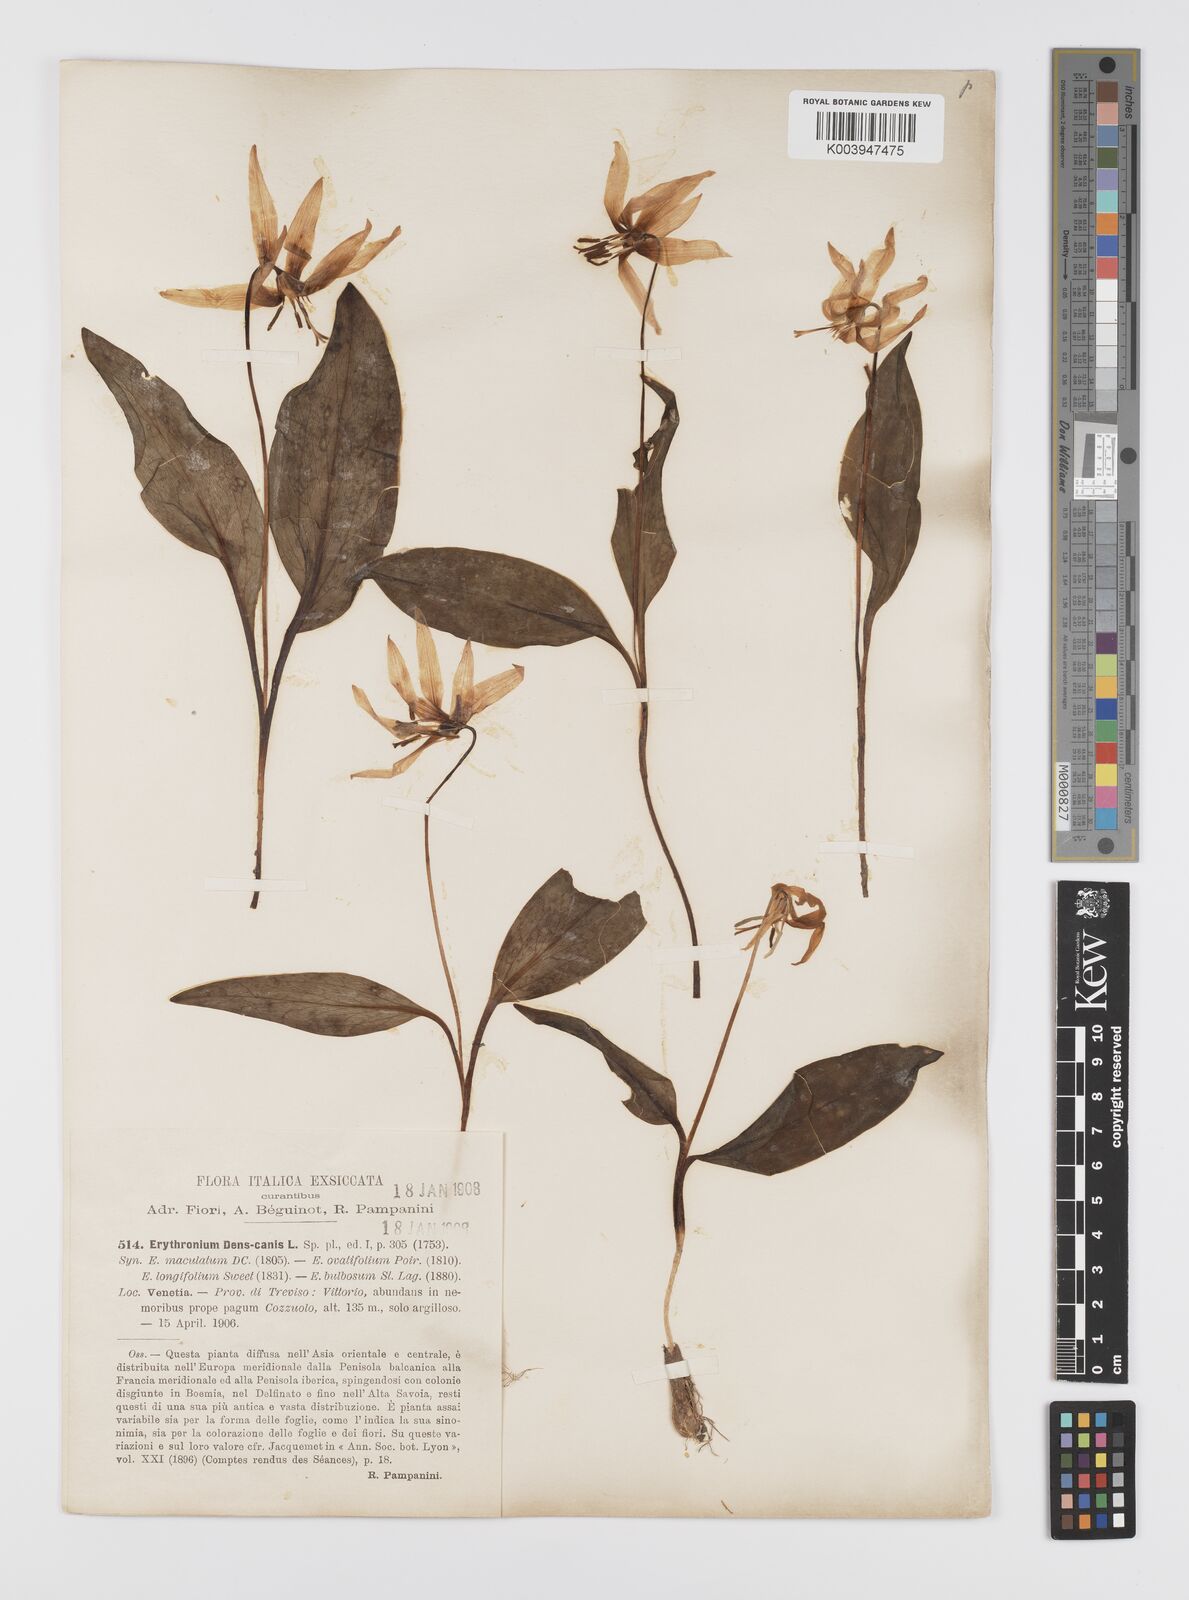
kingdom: Plantae
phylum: Tracheophyta
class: Liliopsida
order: Liliales
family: Liliaceae
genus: Erythronium
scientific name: Erythronium dens-canis
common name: Dog's-tooth-violet
